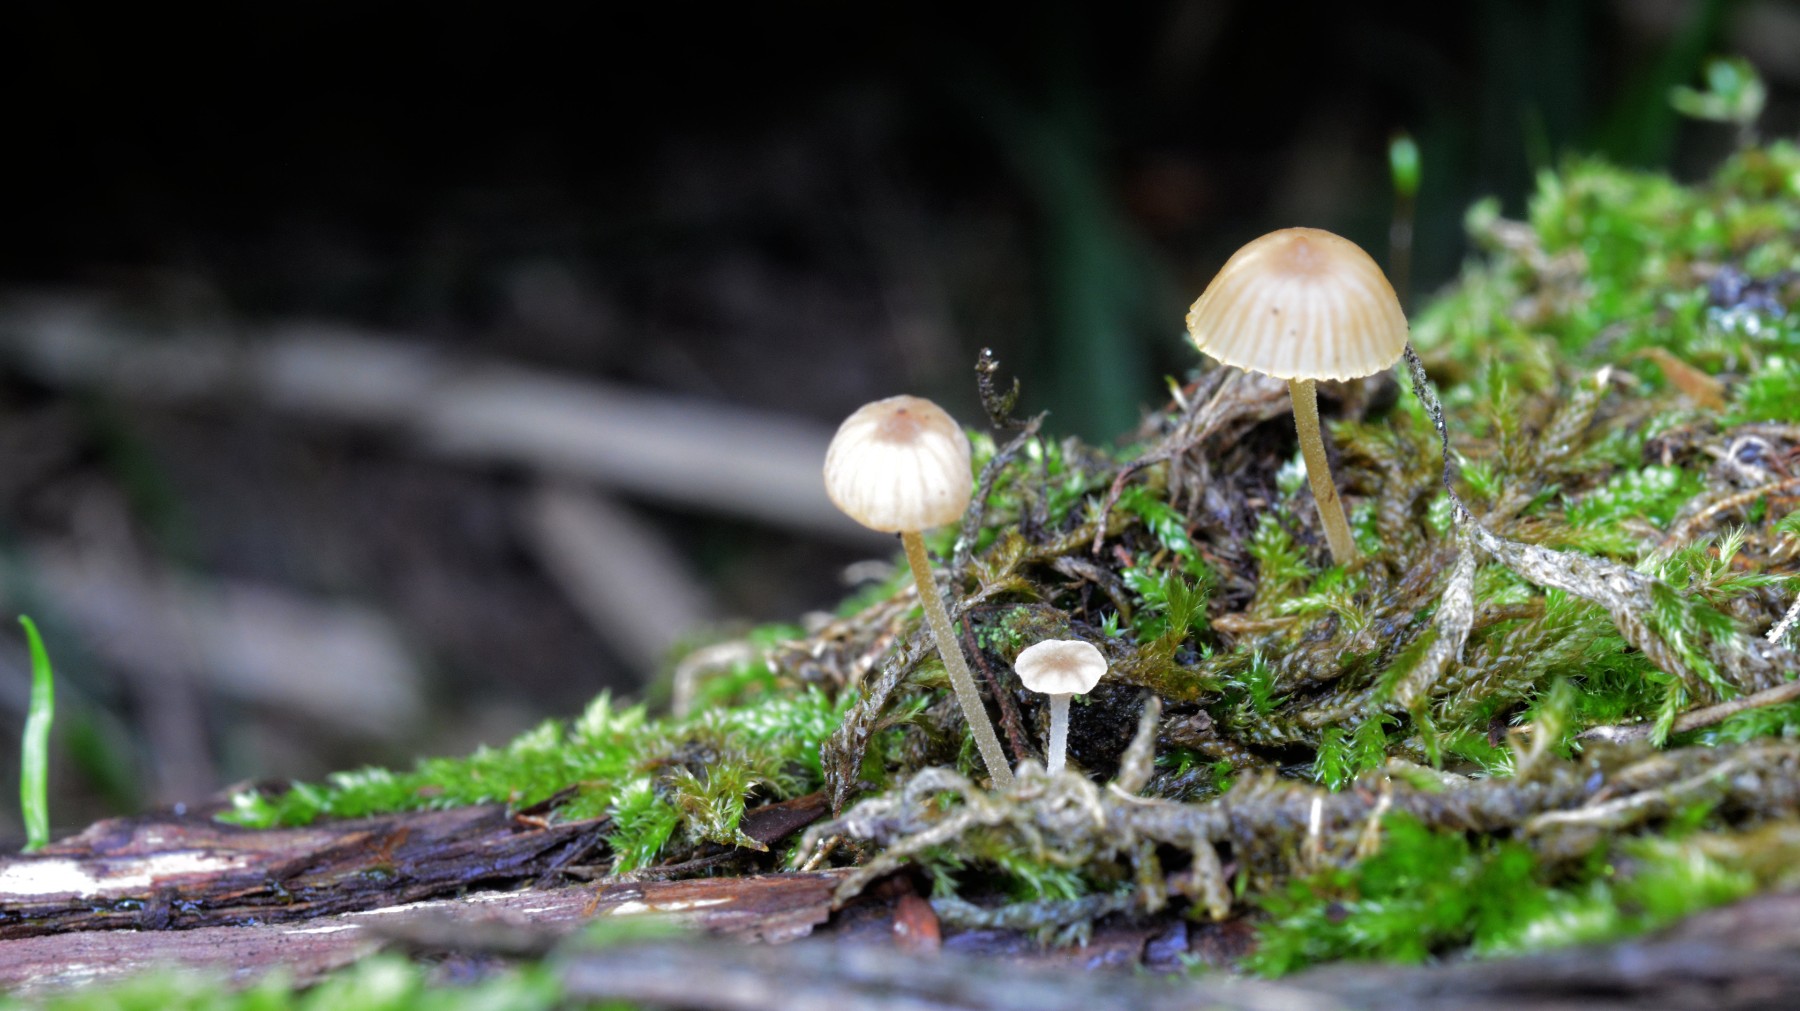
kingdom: Fungi
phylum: Basidiomycota
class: Agaricomycetes
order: Agaricales
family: Porotheleaceae
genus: Phloeomana
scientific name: Phloeomana speirea
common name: kvist-huesvamp
